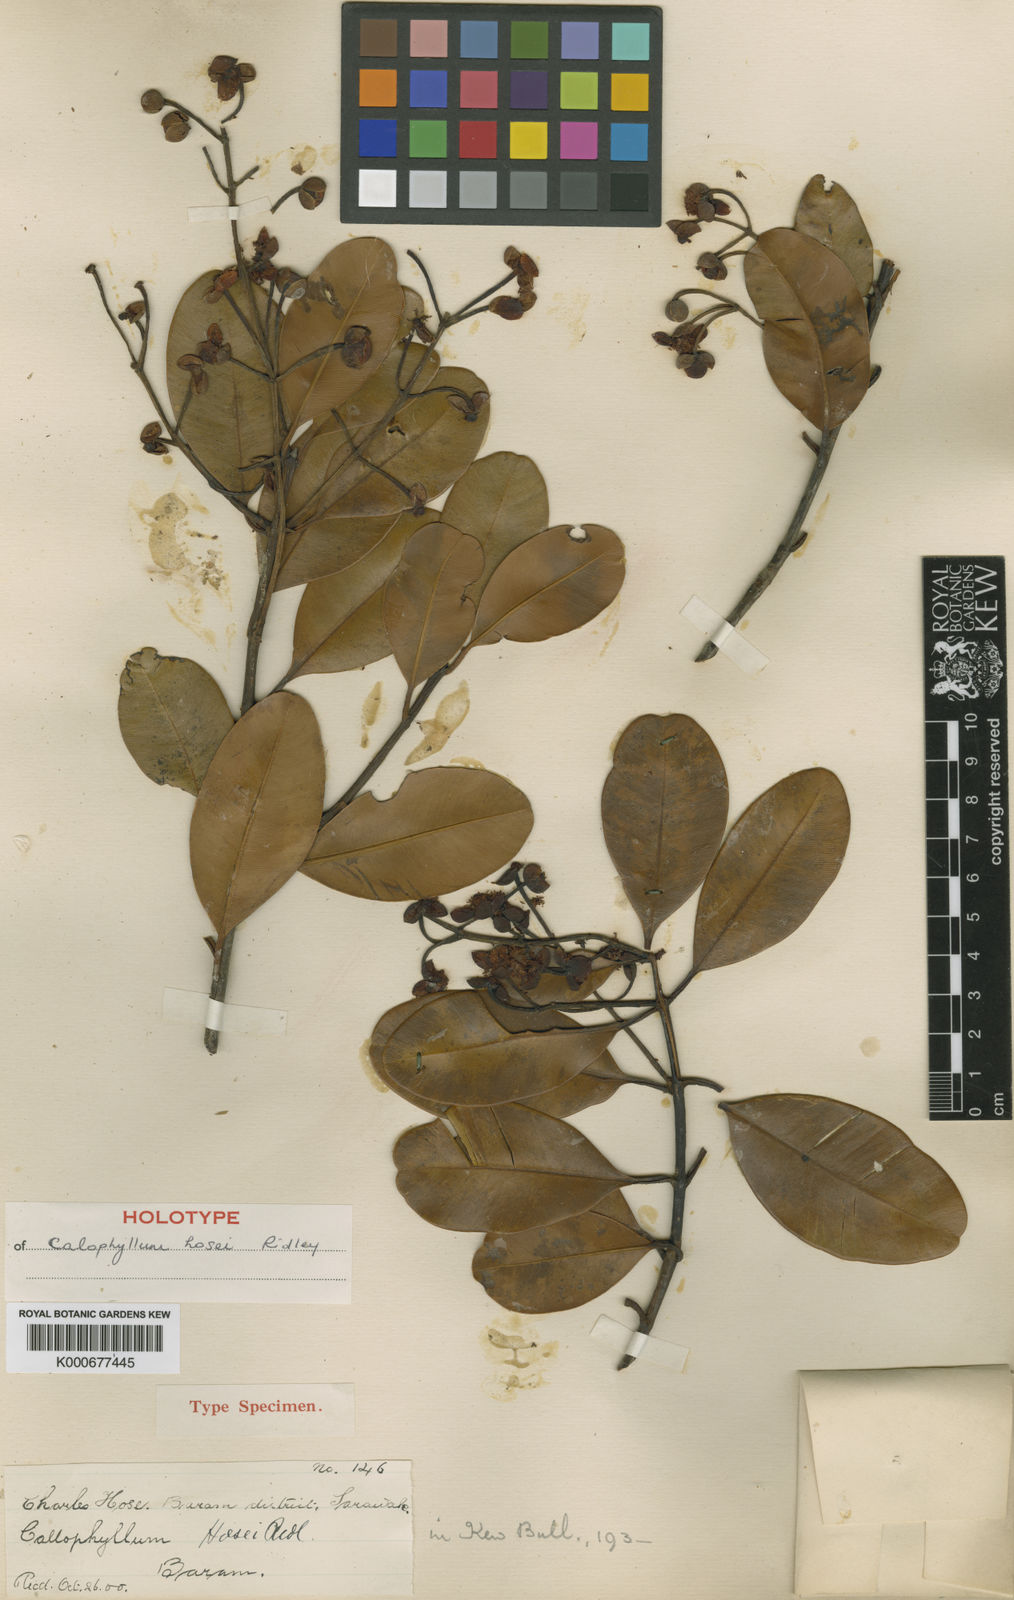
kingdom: Plantae
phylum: Tracheophyta
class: Magnoliopsida
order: Malpighiales
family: Calophyllaceae
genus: Calophyllum
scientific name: Calophyllum hosei
